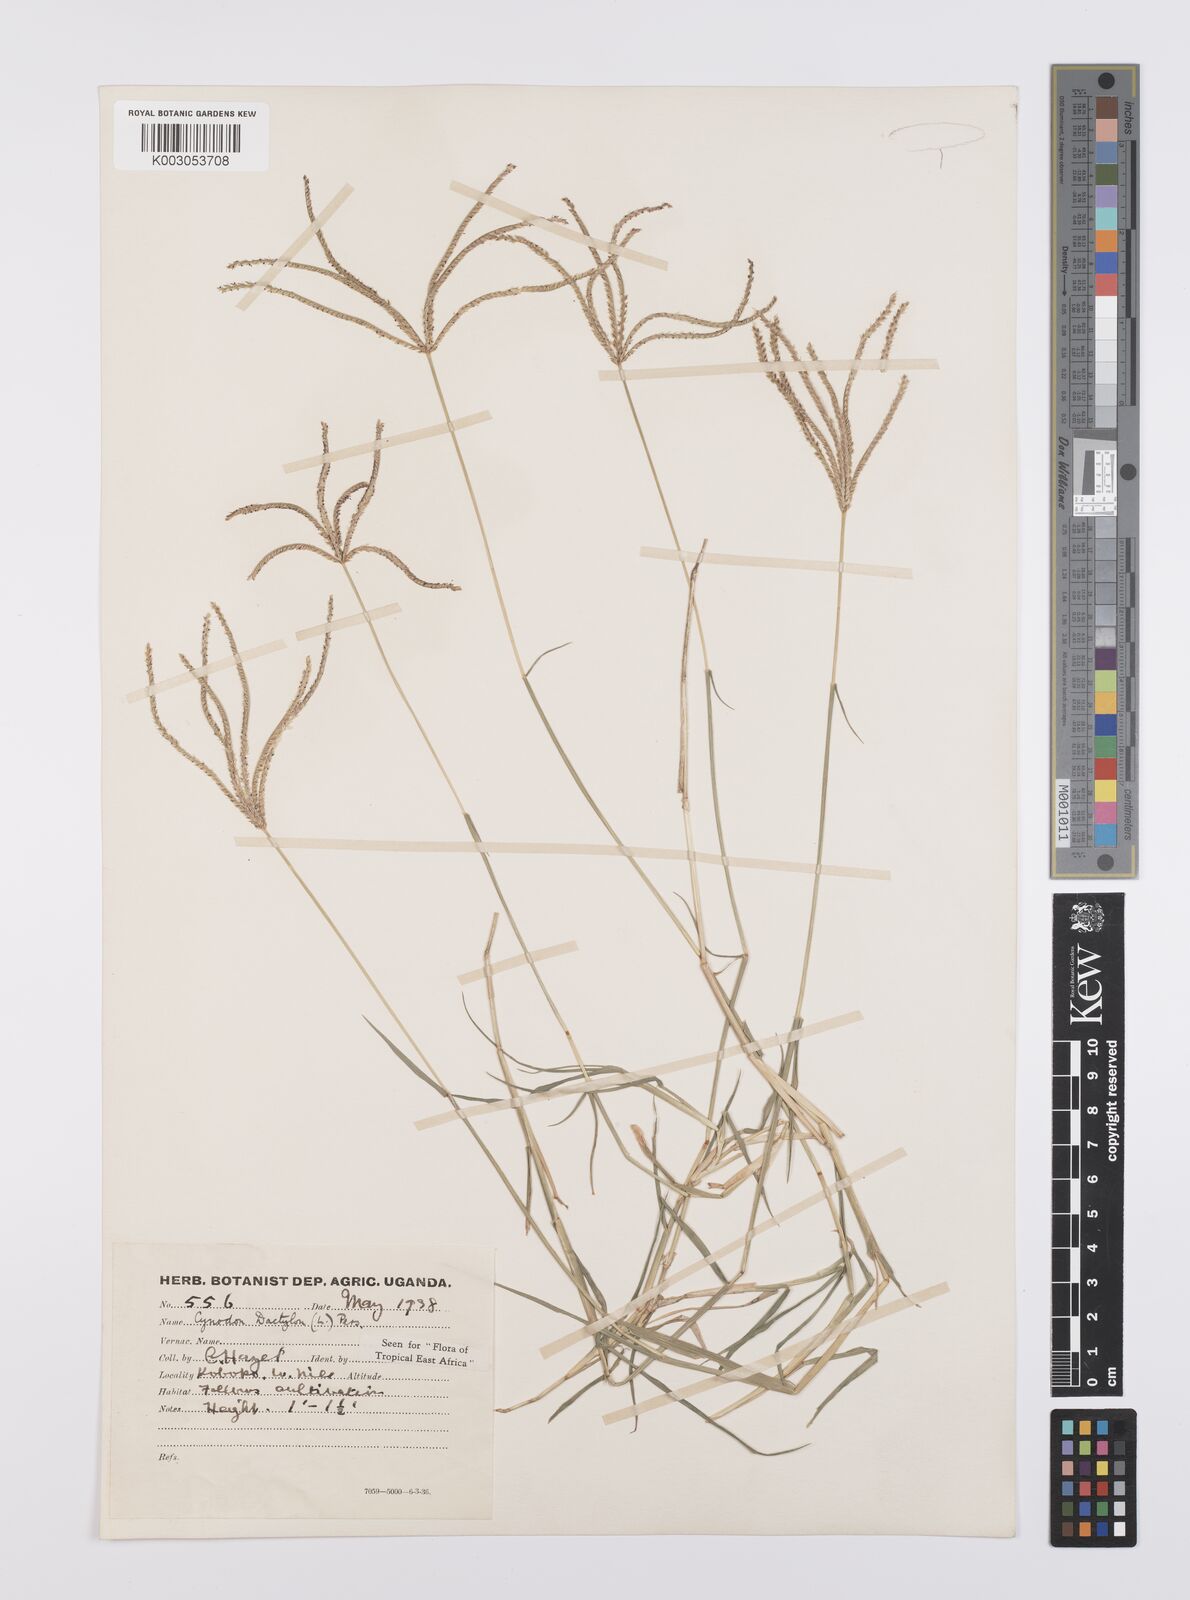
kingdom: Plantae
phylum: Tracheophyta
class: Liliopsida
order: Poales
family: Poaceae
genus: Cynodon
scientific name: Cynodon dactylon
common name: Bermuda grass
